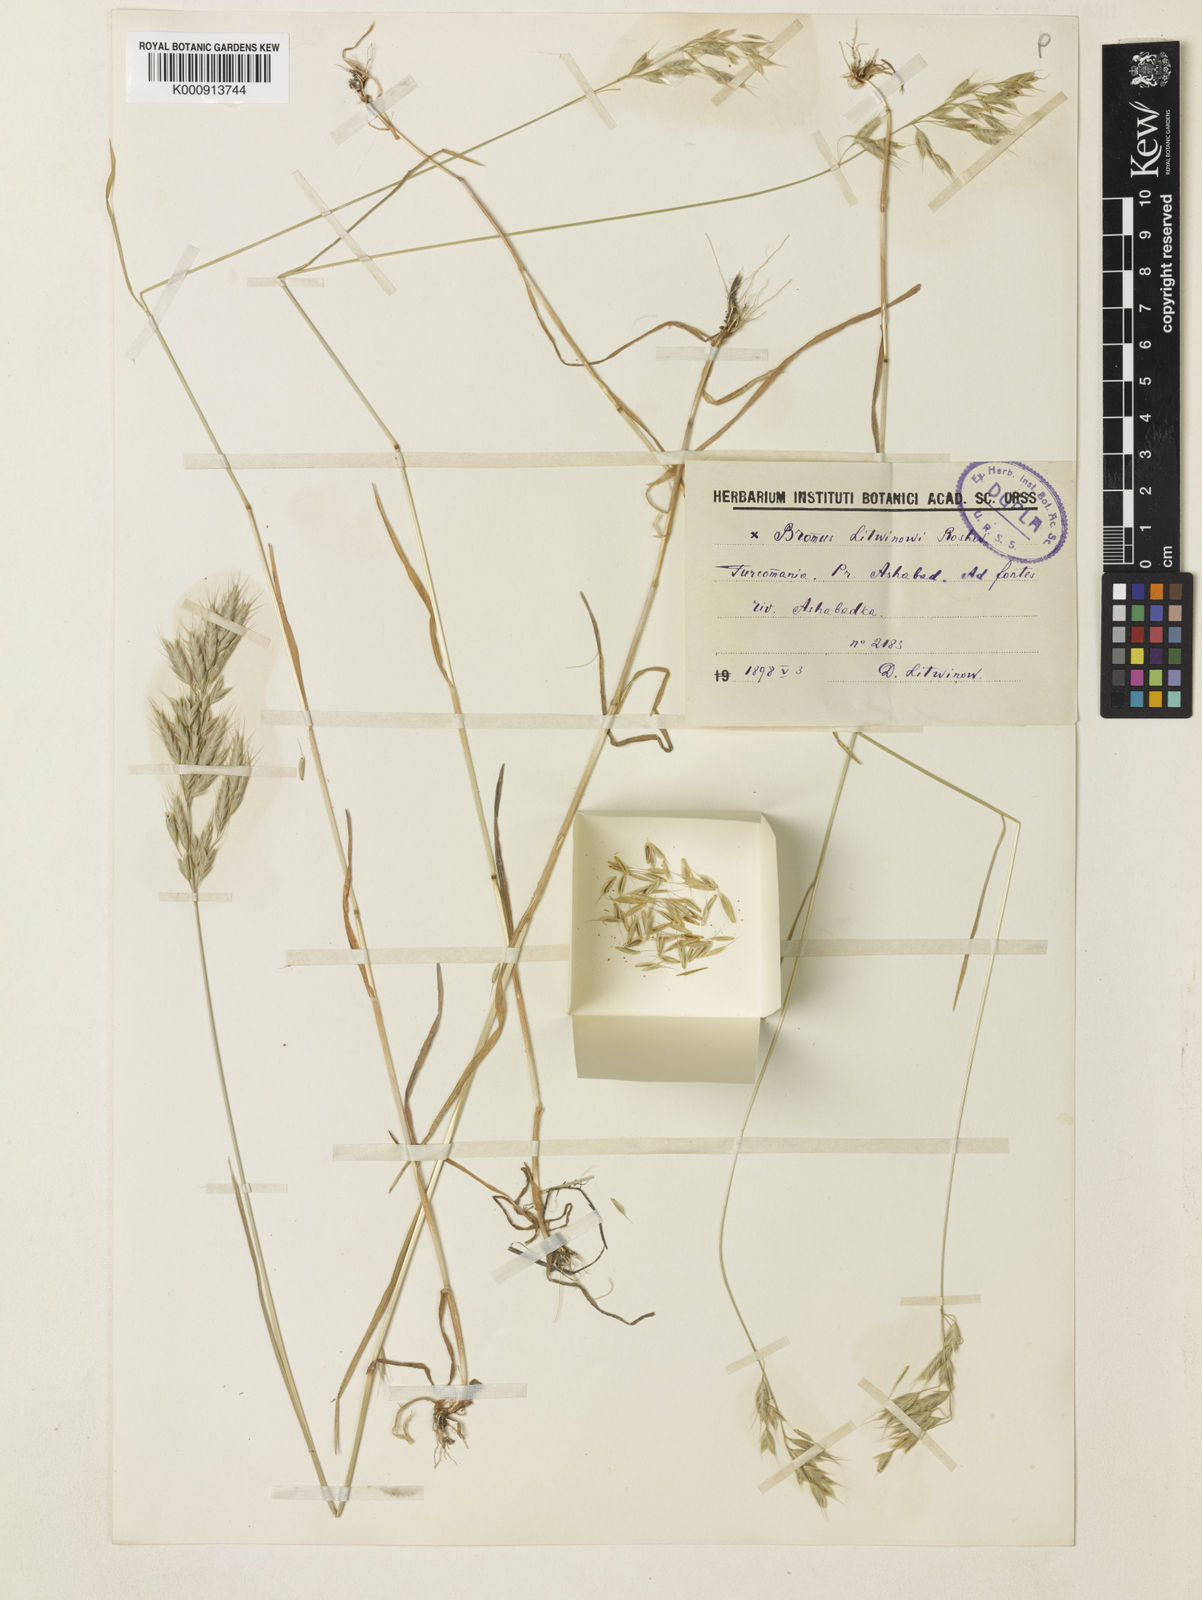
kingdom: Plantae
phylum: Tracheophyta
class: Liliopsida
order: Poales
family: Poaceae
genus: Bromus
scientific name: Bromus
